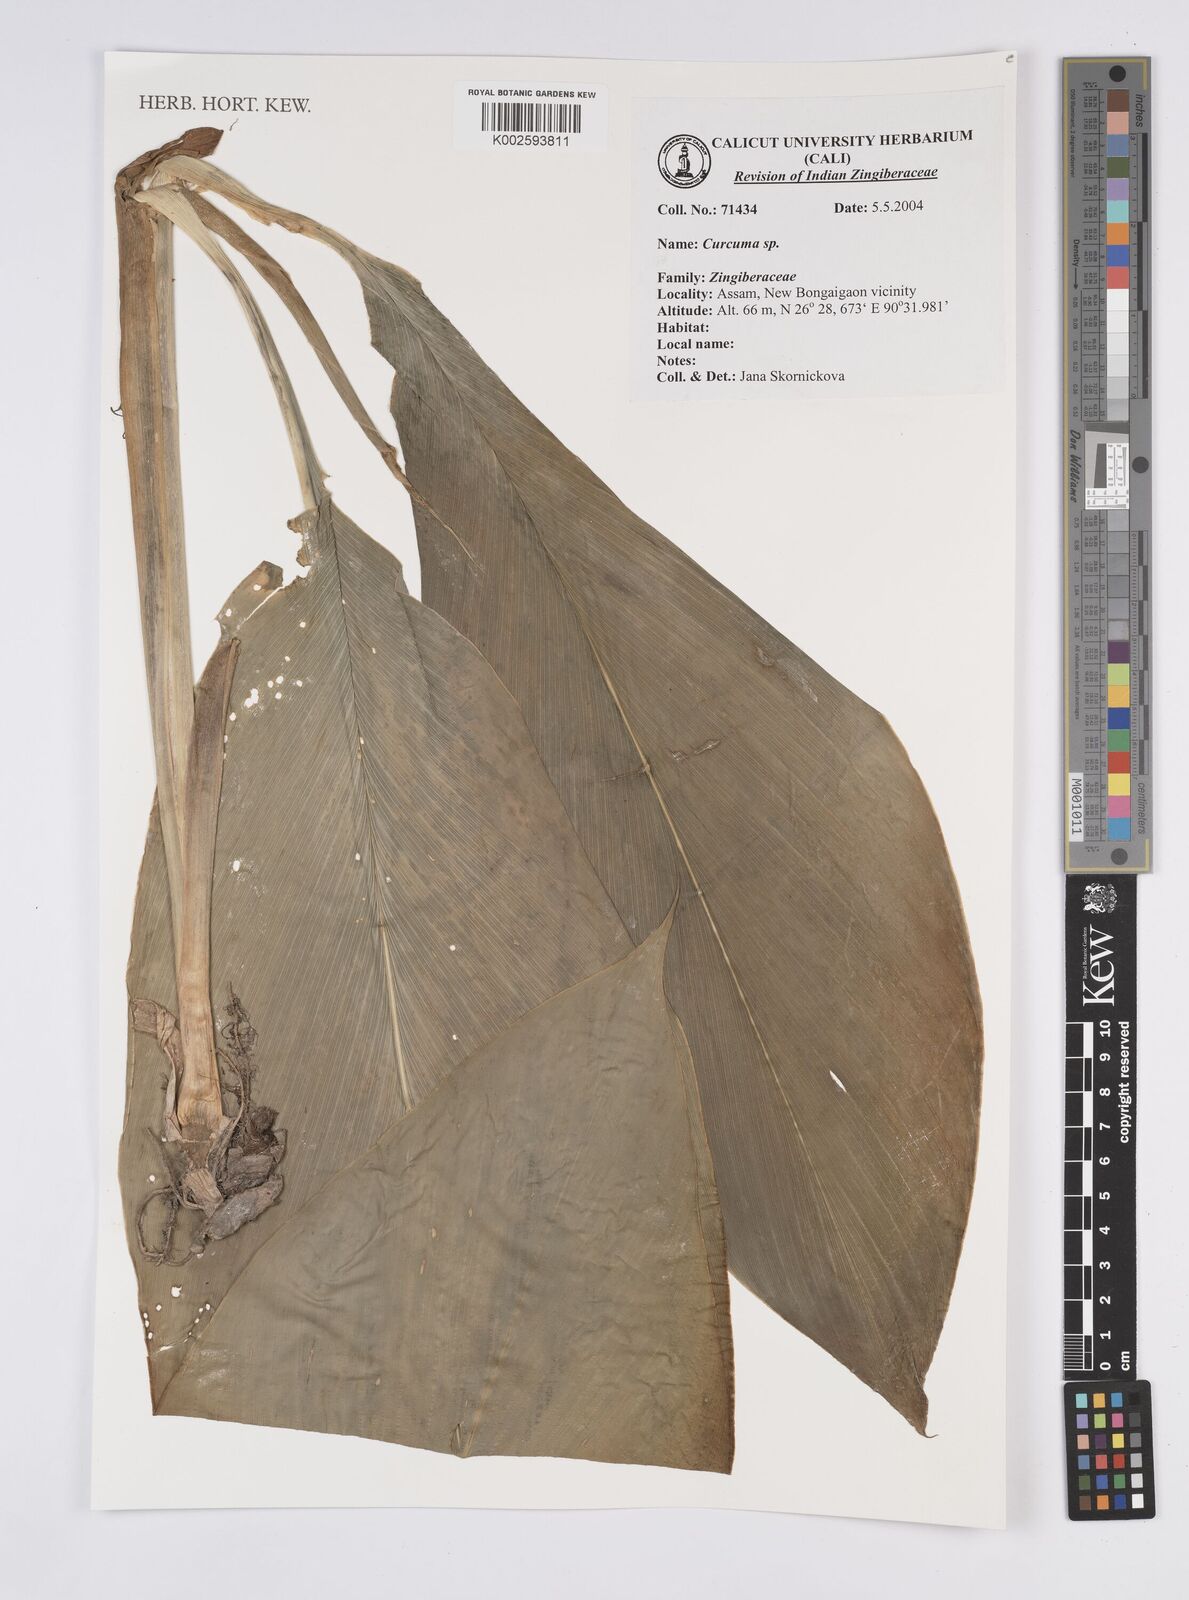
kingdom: Plantae
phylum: Tracheophyta
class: Liliopsida
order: Zingiberales
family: Zingiberaceae
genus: Curcuma
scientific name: Curcuma
